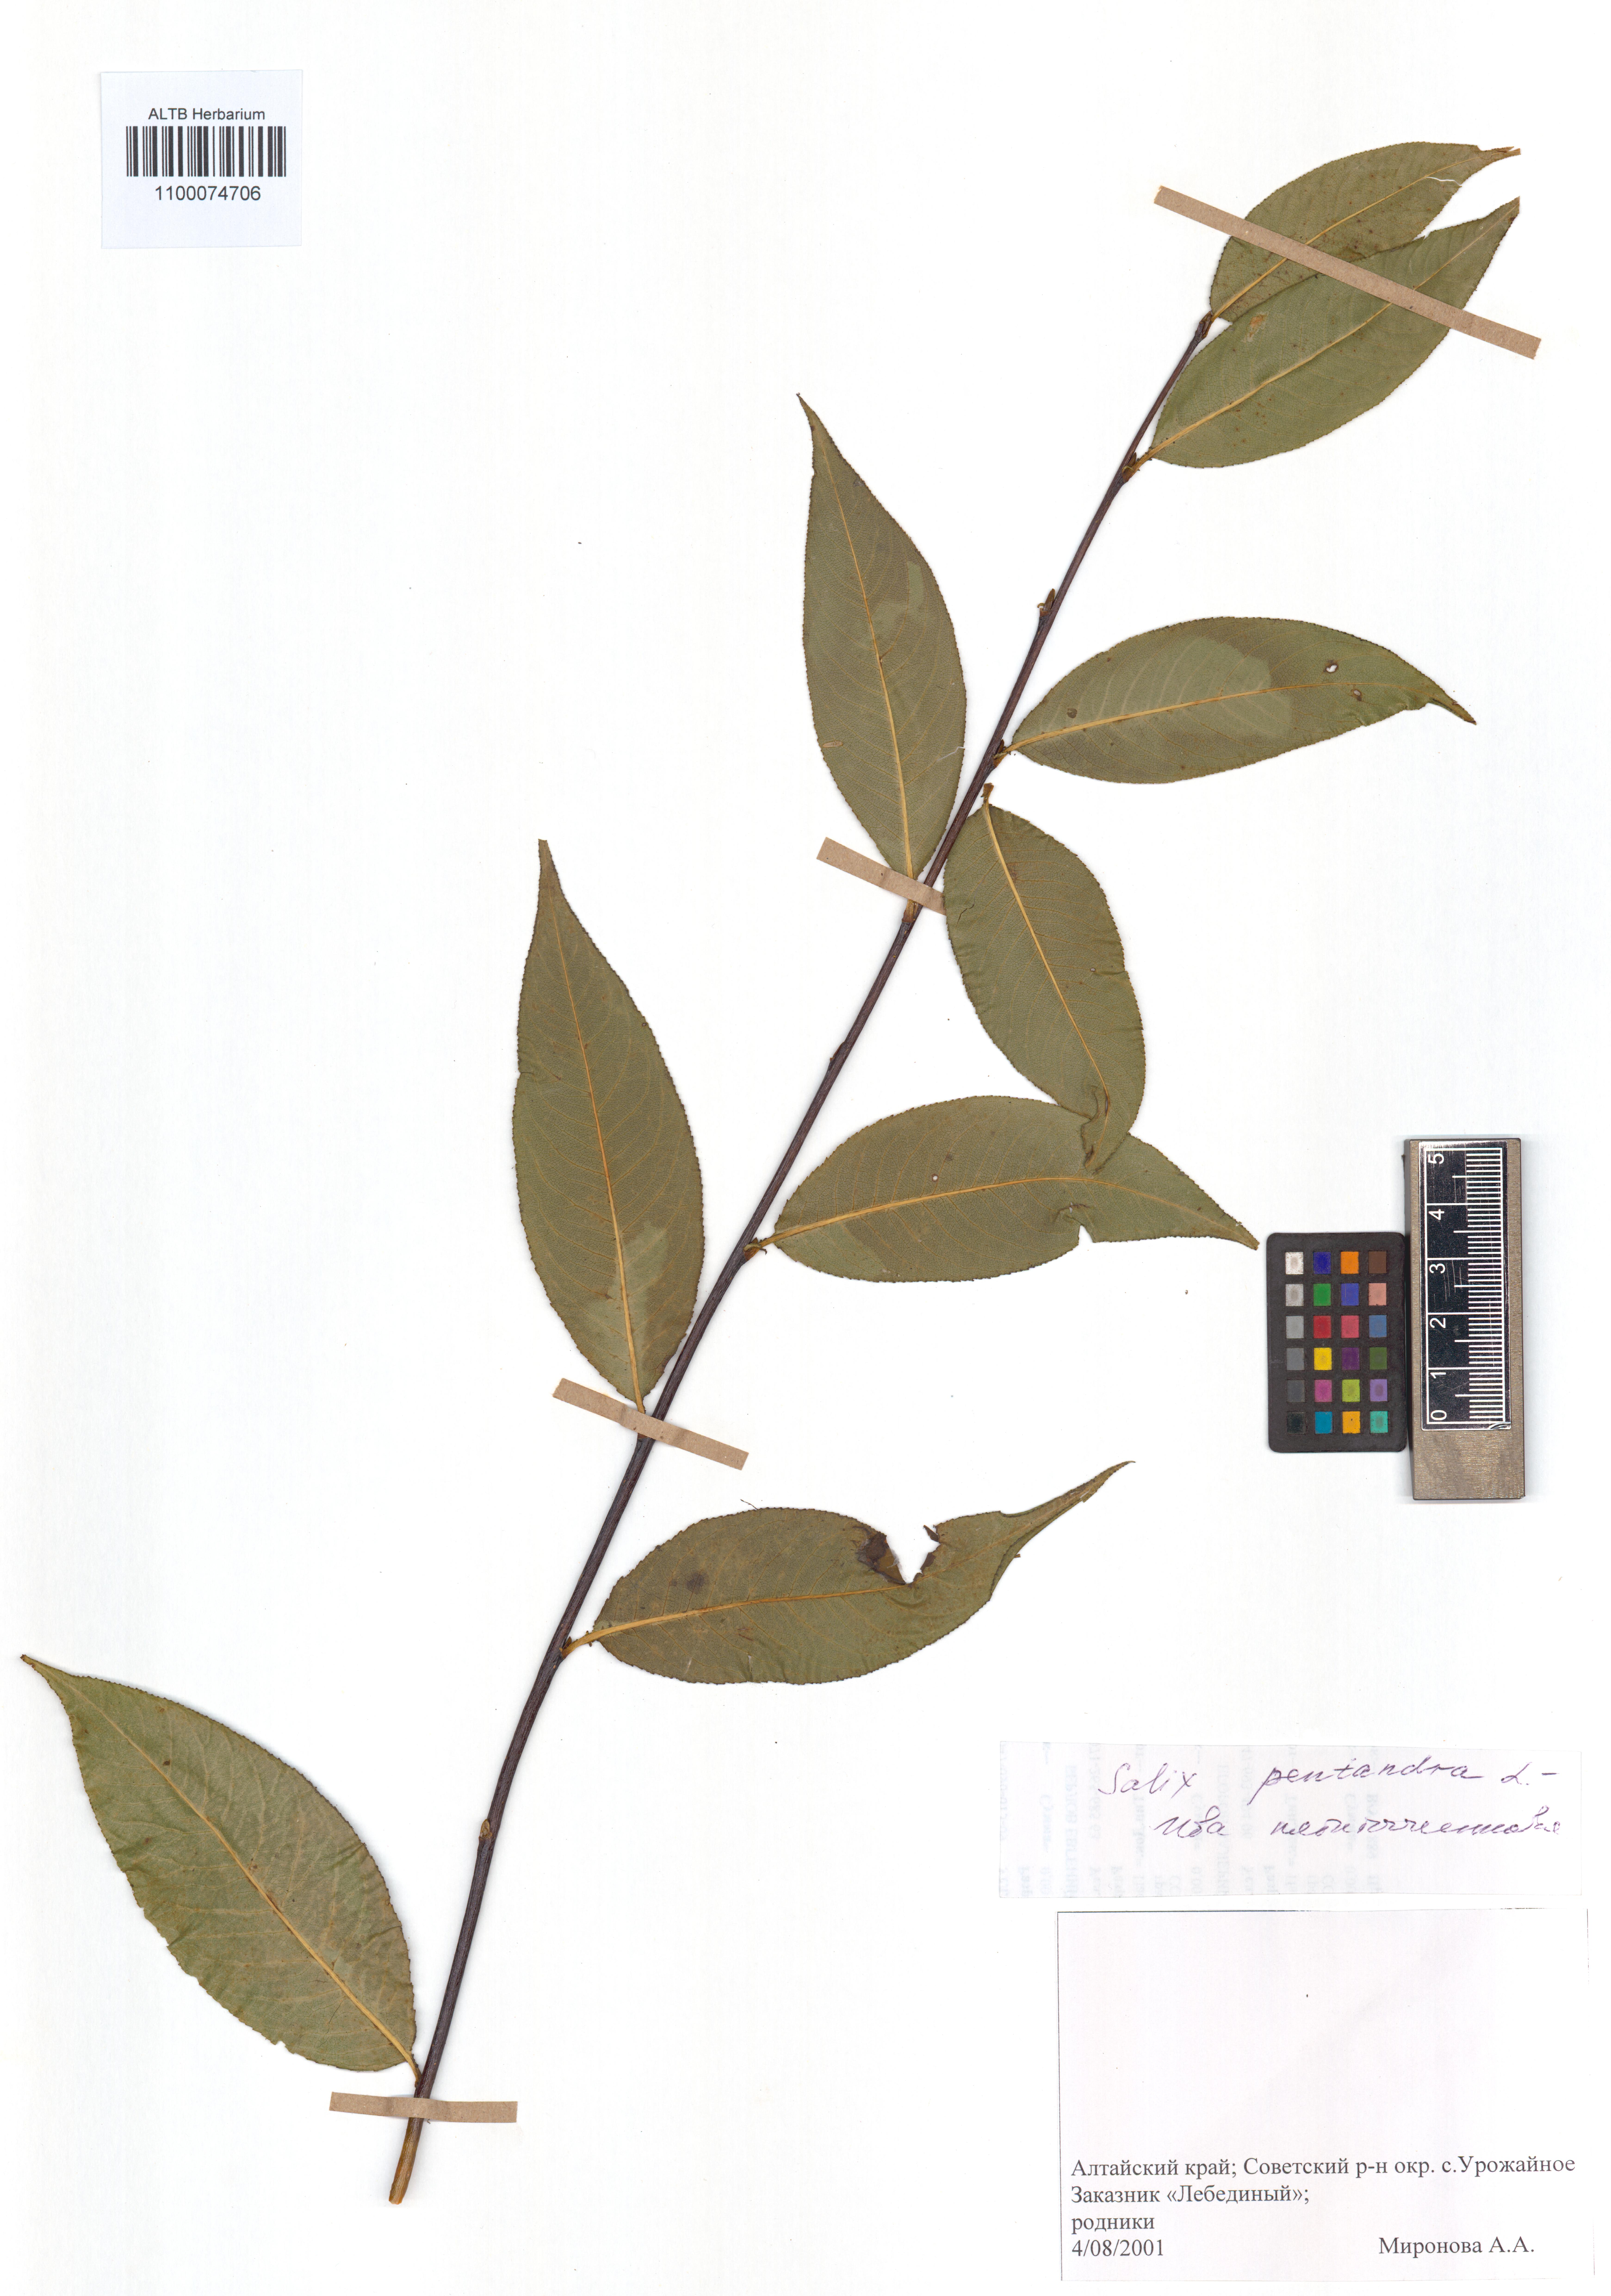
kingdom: Plantae
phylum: Tracheophyta
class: Magnoliopsida
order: Malpighiales
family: Salicaceae
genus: Salix
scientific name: Salix pentandra
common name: Bay willow
